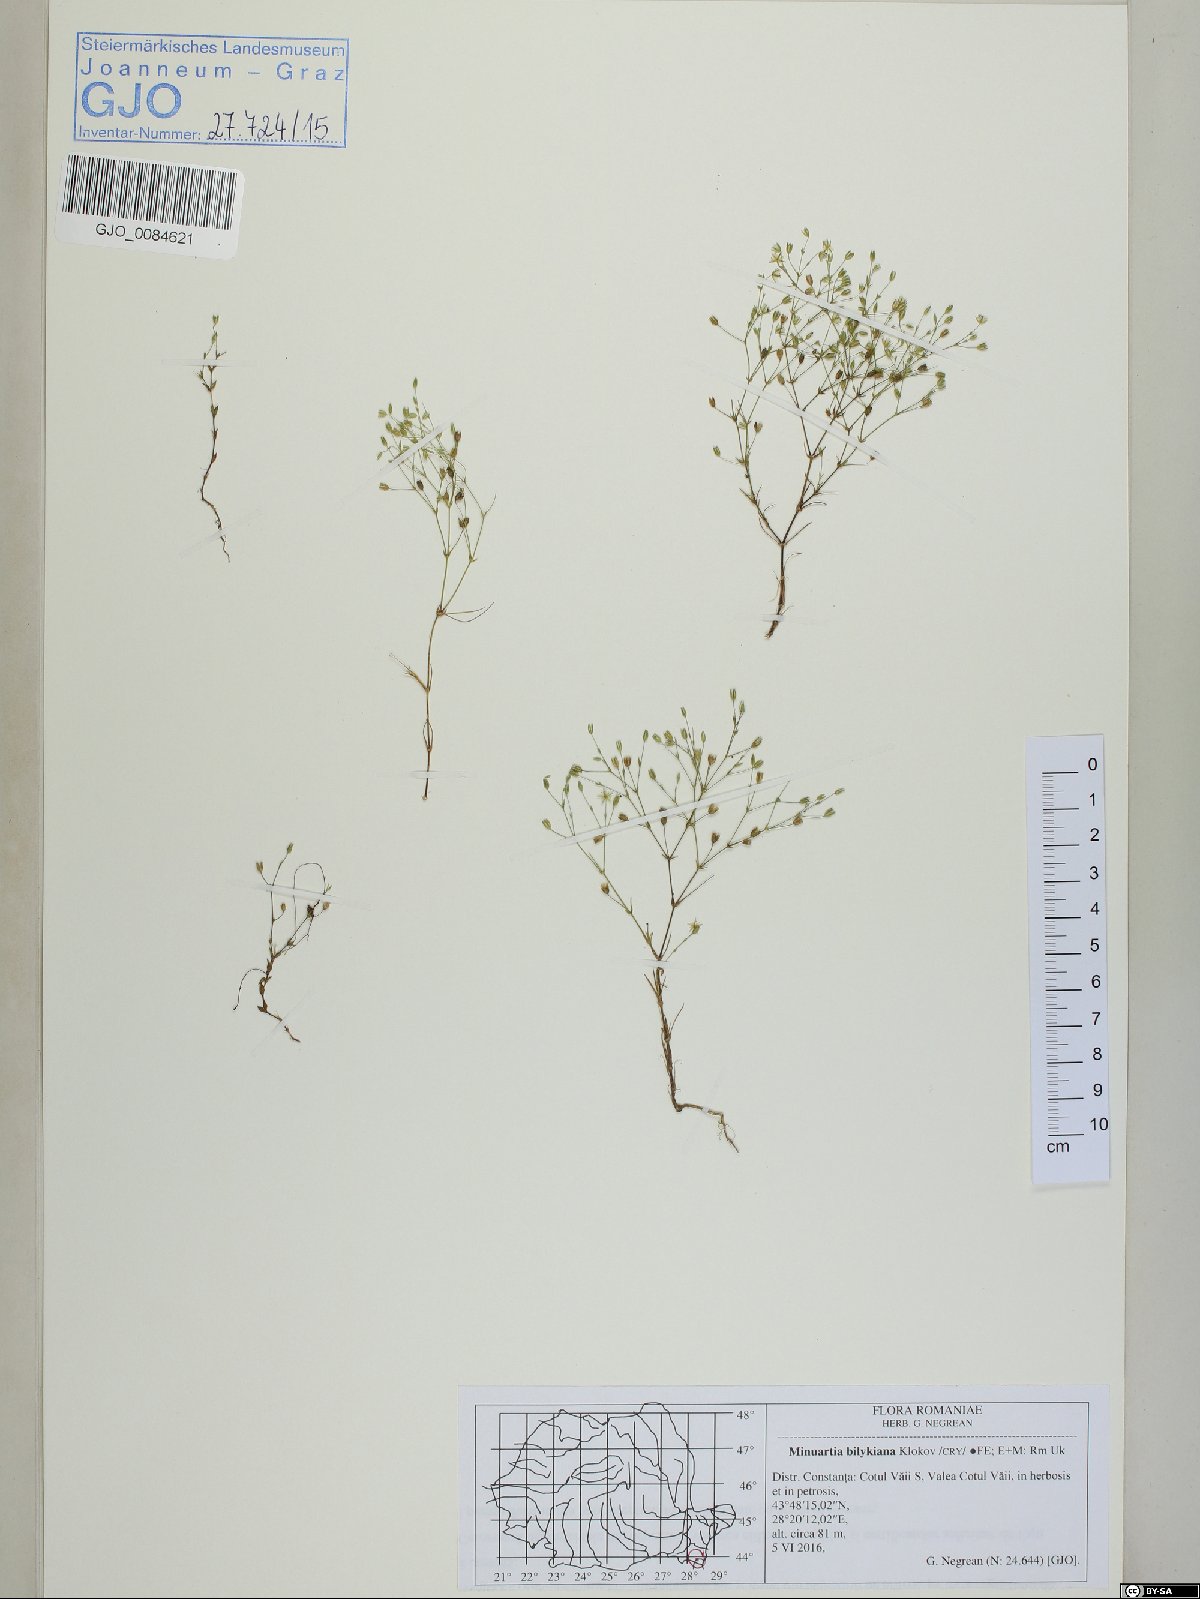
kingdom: Plantae
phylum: Tracheophyta
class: Magnoliopsida
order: Caryophyllales
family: Caryophyllaceae
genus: Sabulina
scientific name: Sabulina bilykiana
